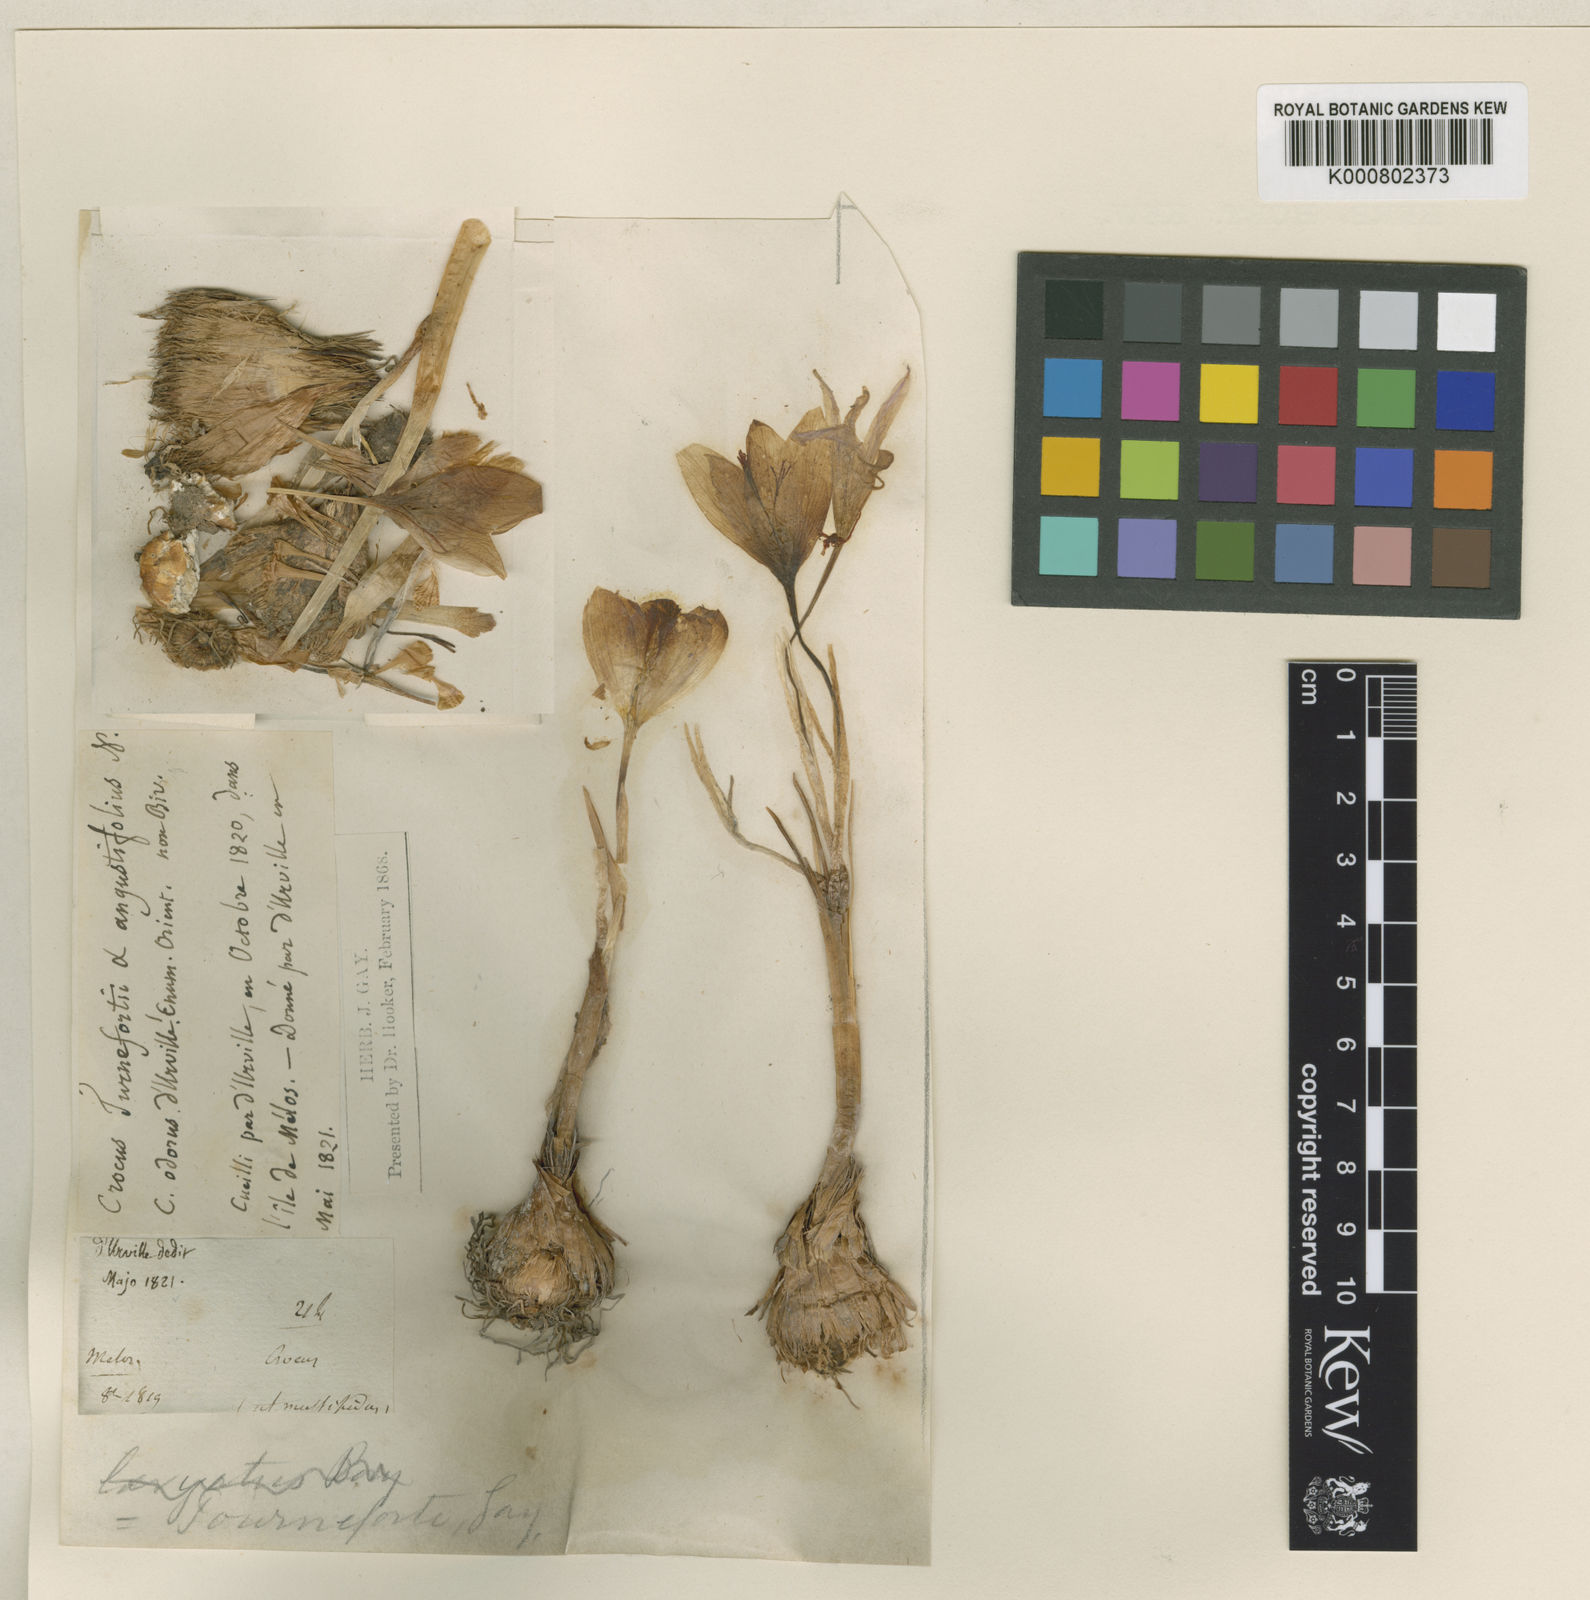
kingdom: Plantae
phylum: Tracheophyta
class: Liliopsida
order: Asparagales
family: Iridaceae
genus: Crocus
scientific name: Crocus tournefortii
